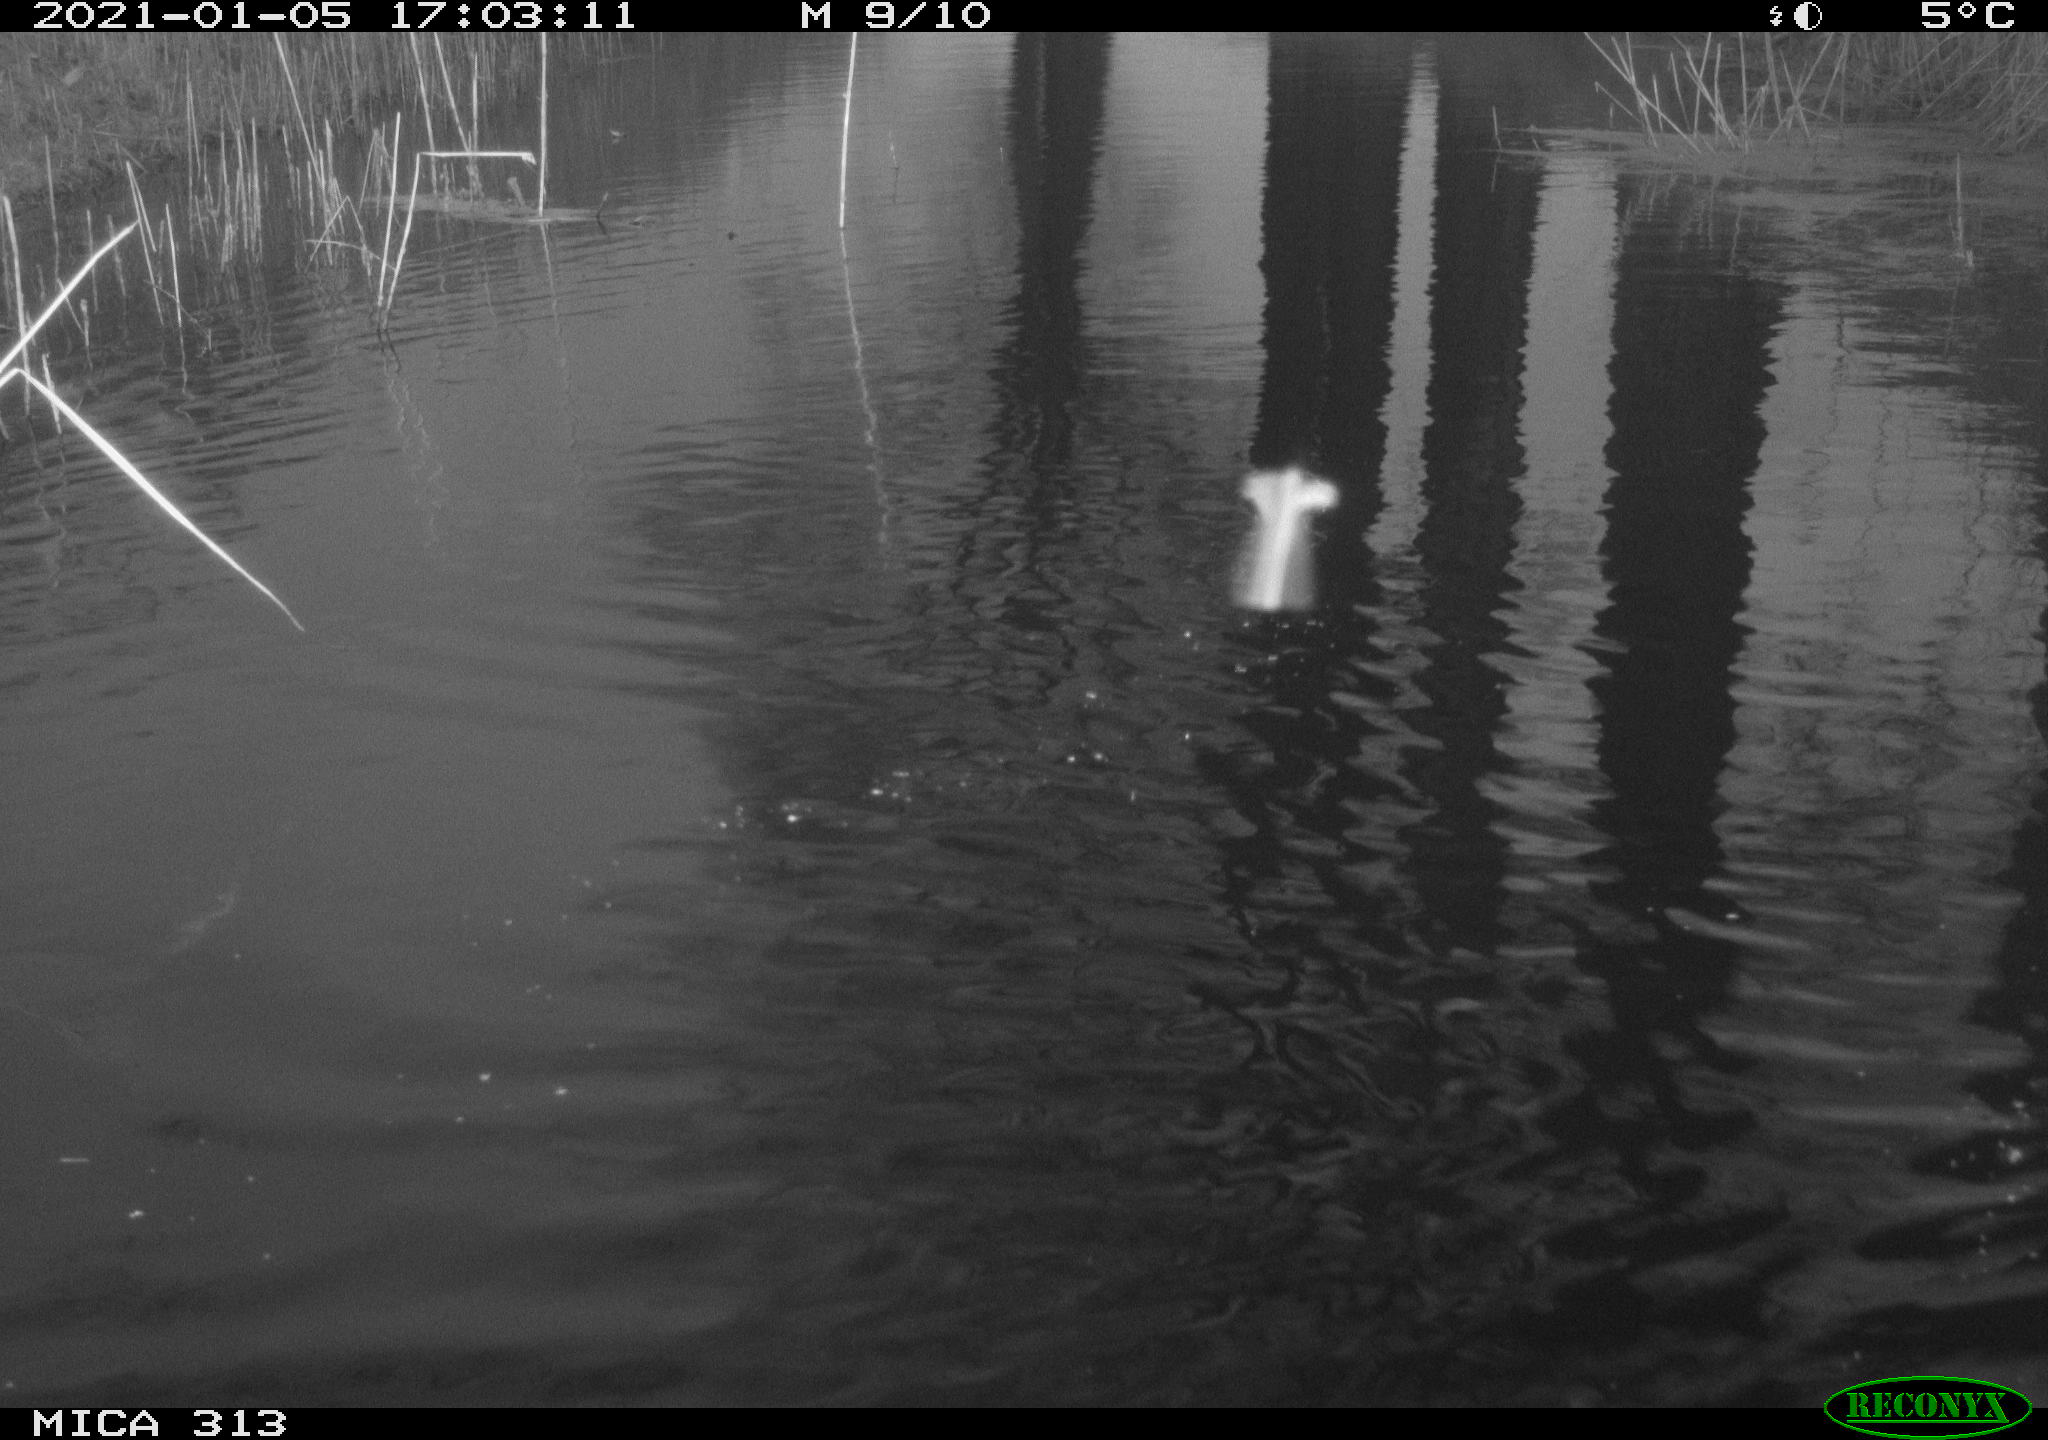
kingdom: Animalia
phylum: Chordata
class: Aves
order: Gruiformes
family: Rallidae
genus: Gallinula
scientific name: Gallinula chloropus
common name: Common moorhen
